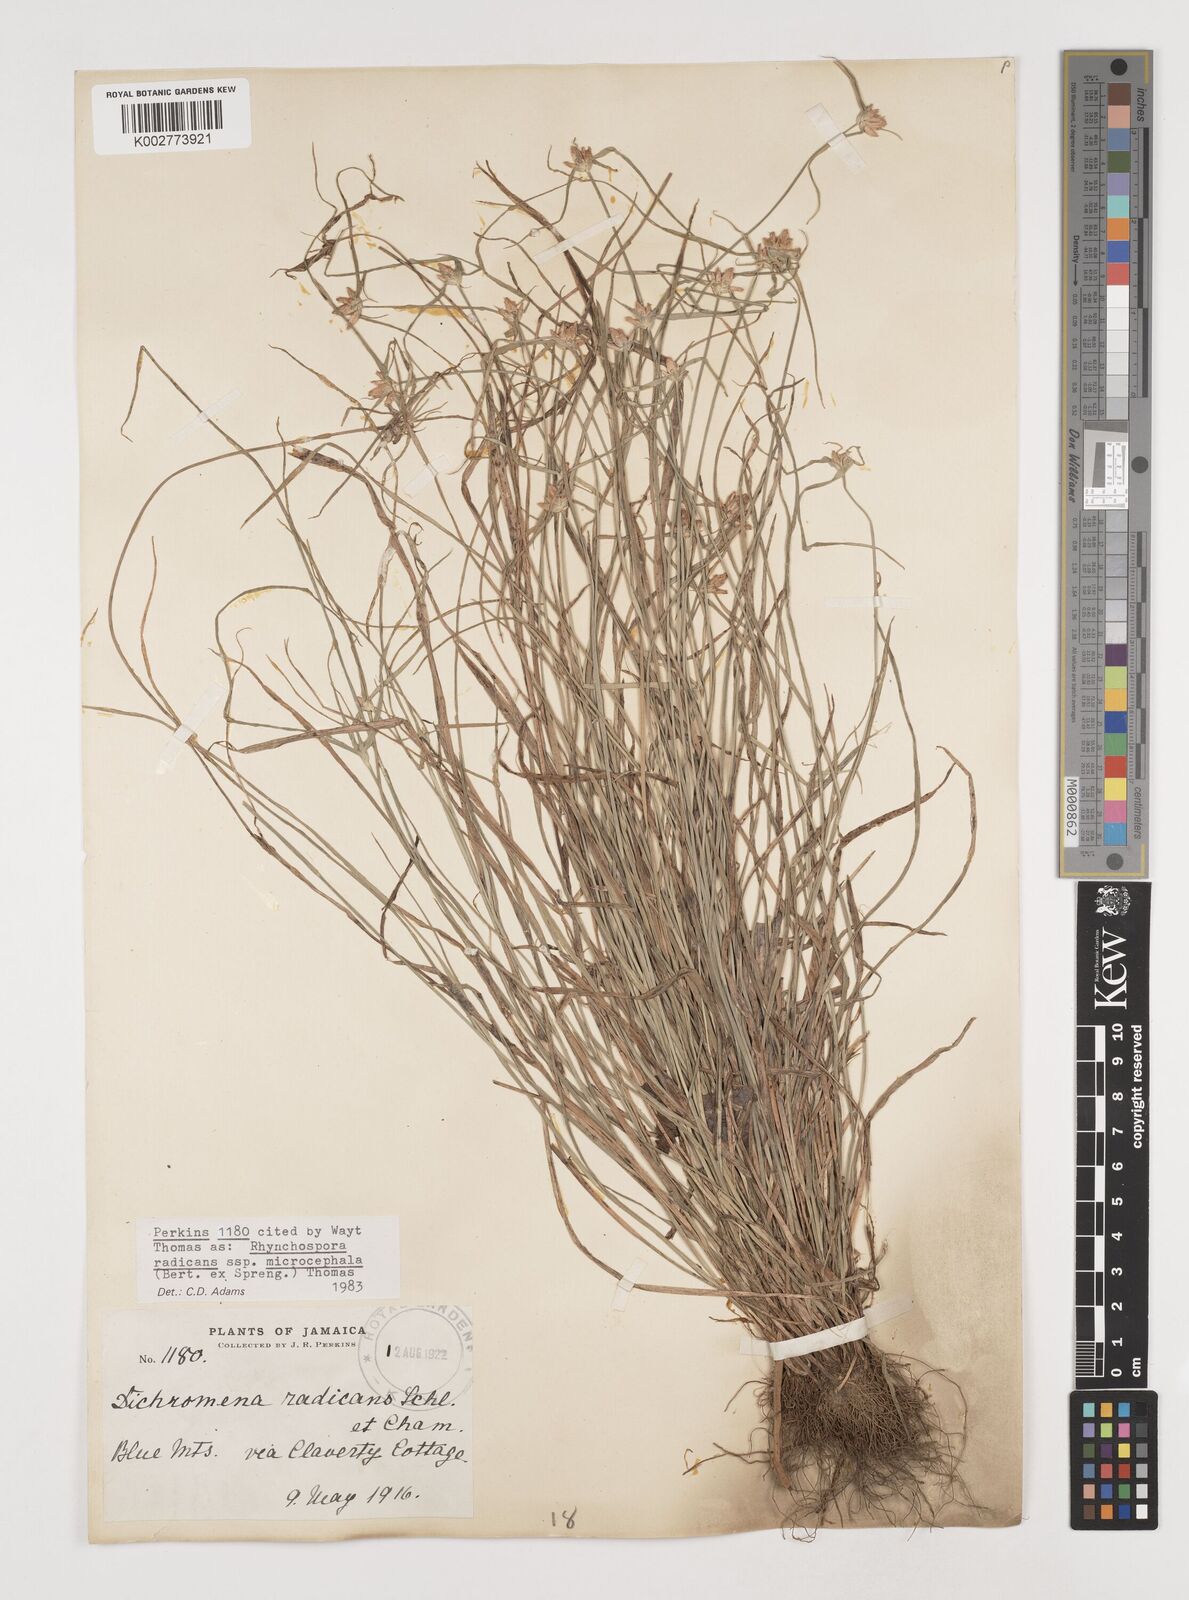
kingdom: Plantae
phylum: Tracheophyta
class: Liliopsida
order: Poales
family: Cyperaceae
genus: Rhynchospora
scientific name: Rhynchospora radicans
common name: Tropical whitetop
